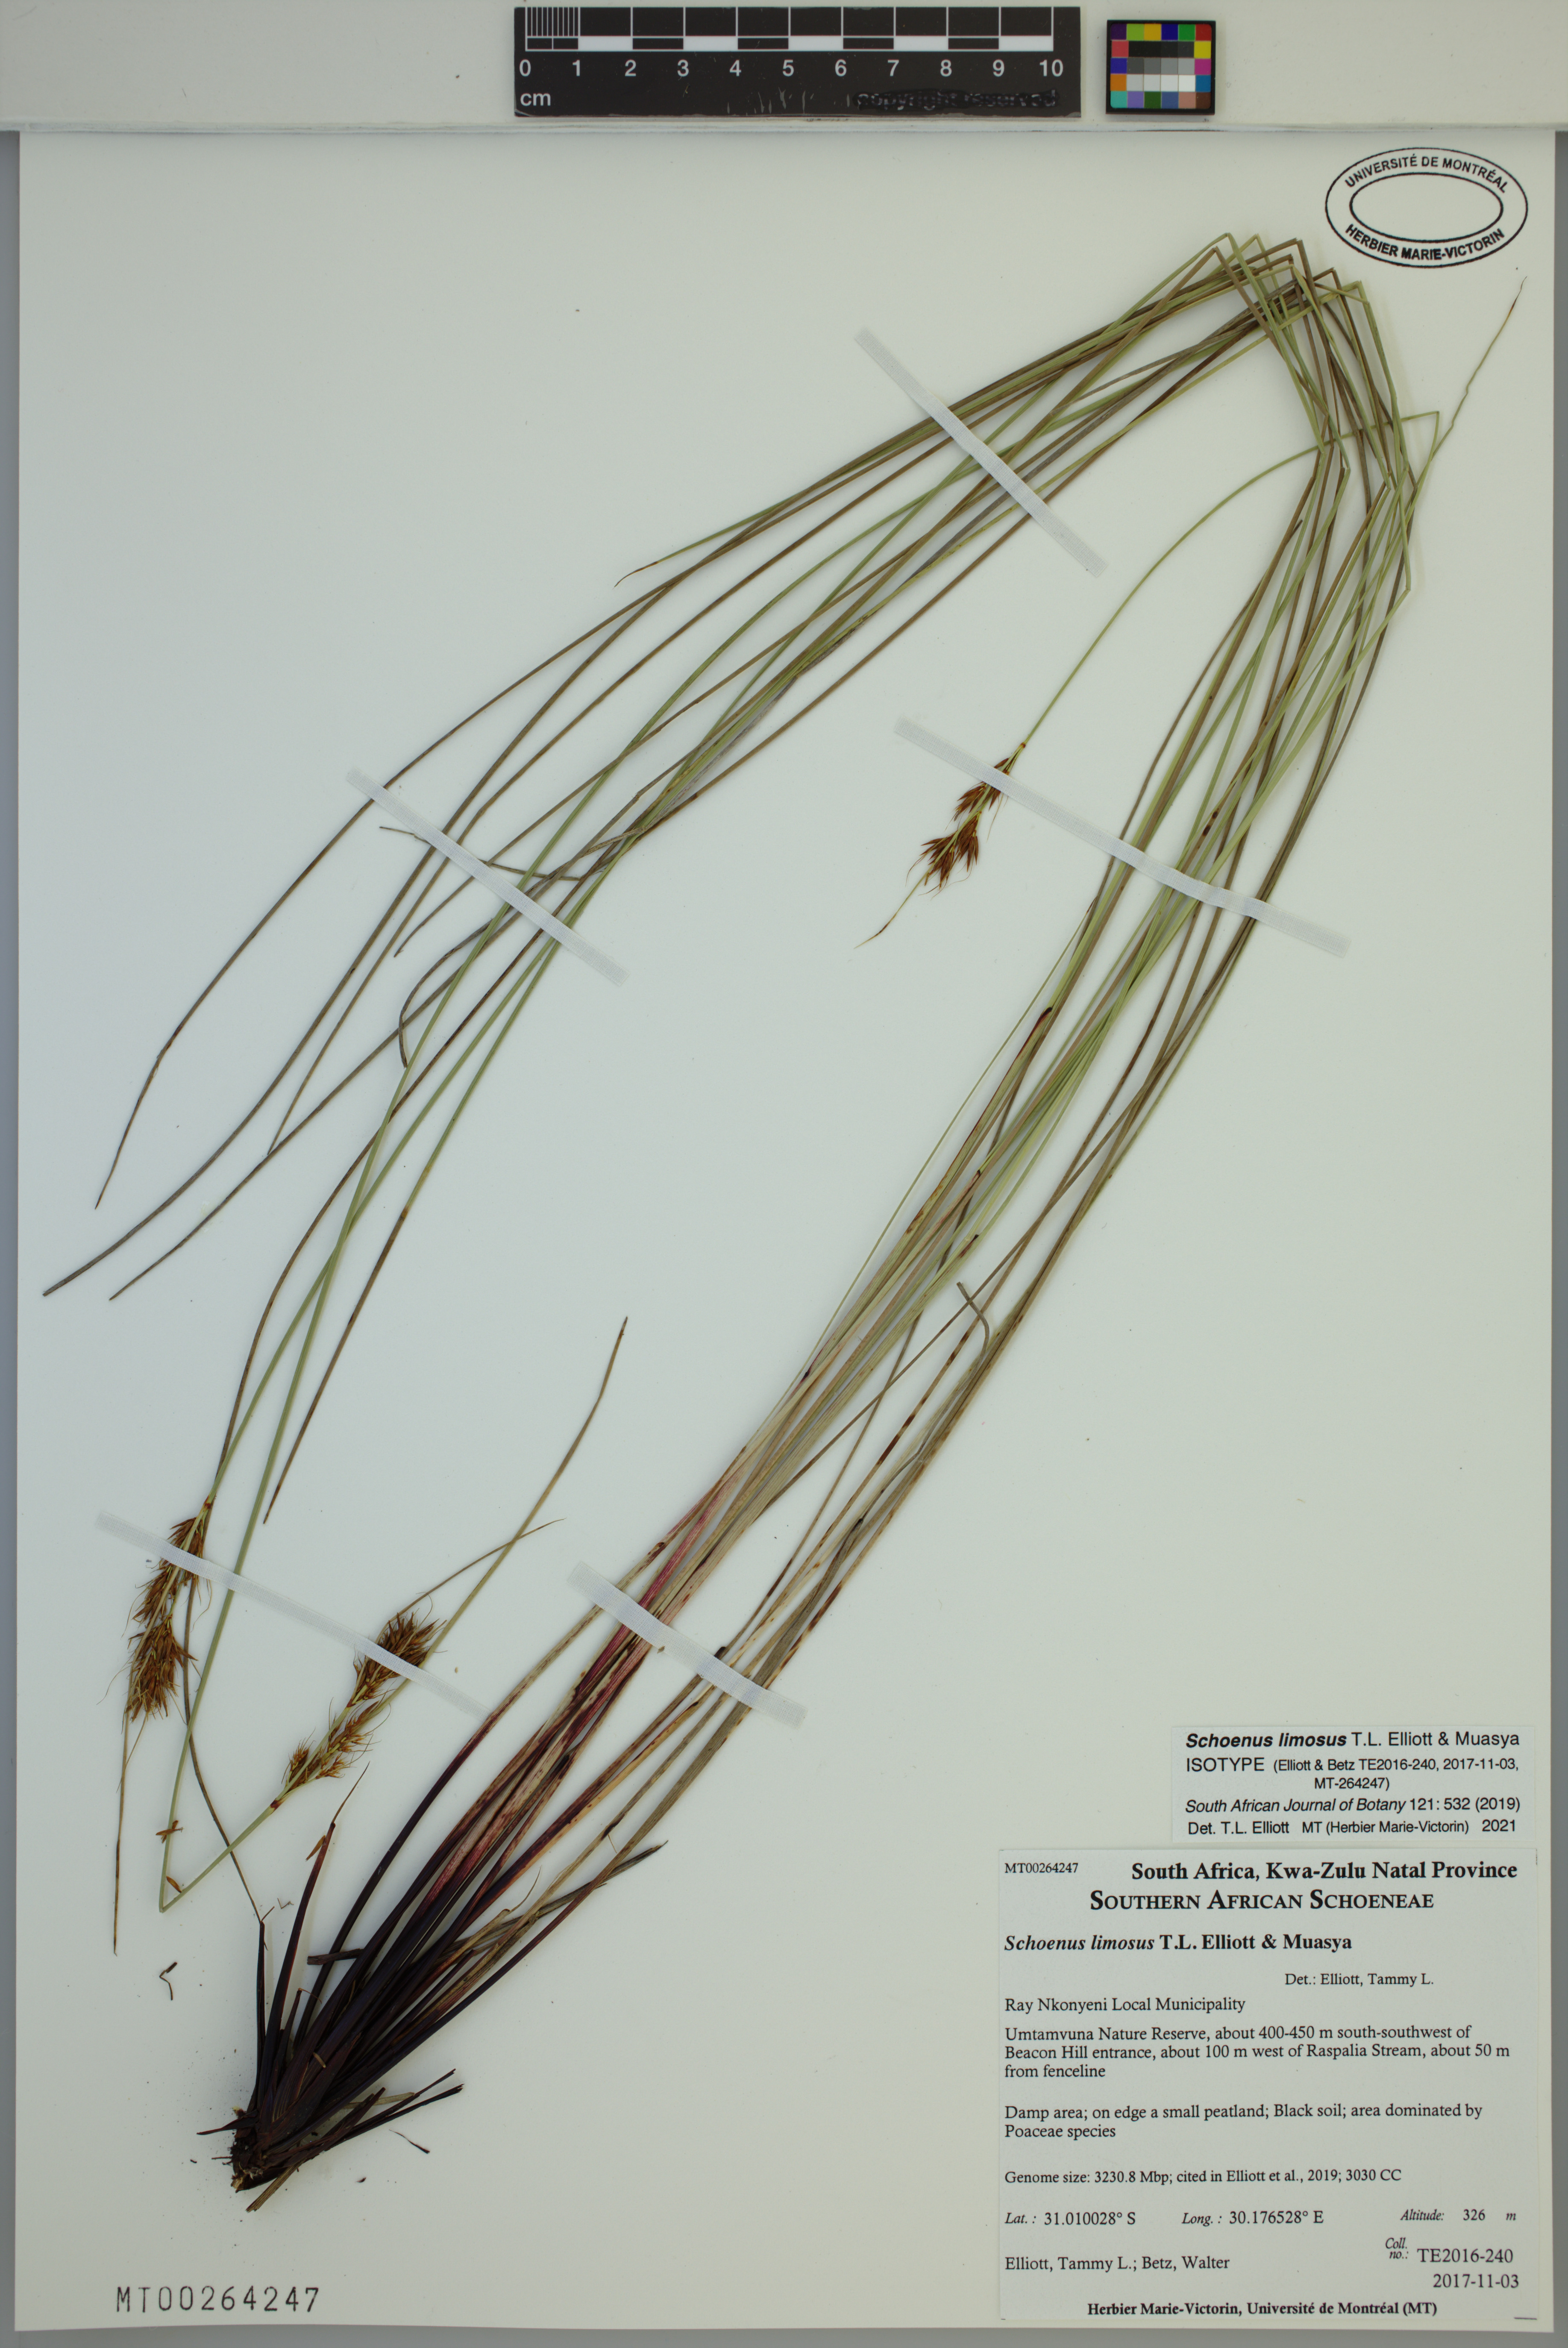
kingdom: Plantae
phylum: Tracheophyta
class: Liliopsida
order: Poales
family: Cyperaceae
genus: Schoenus
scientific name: Schoenus limosus
